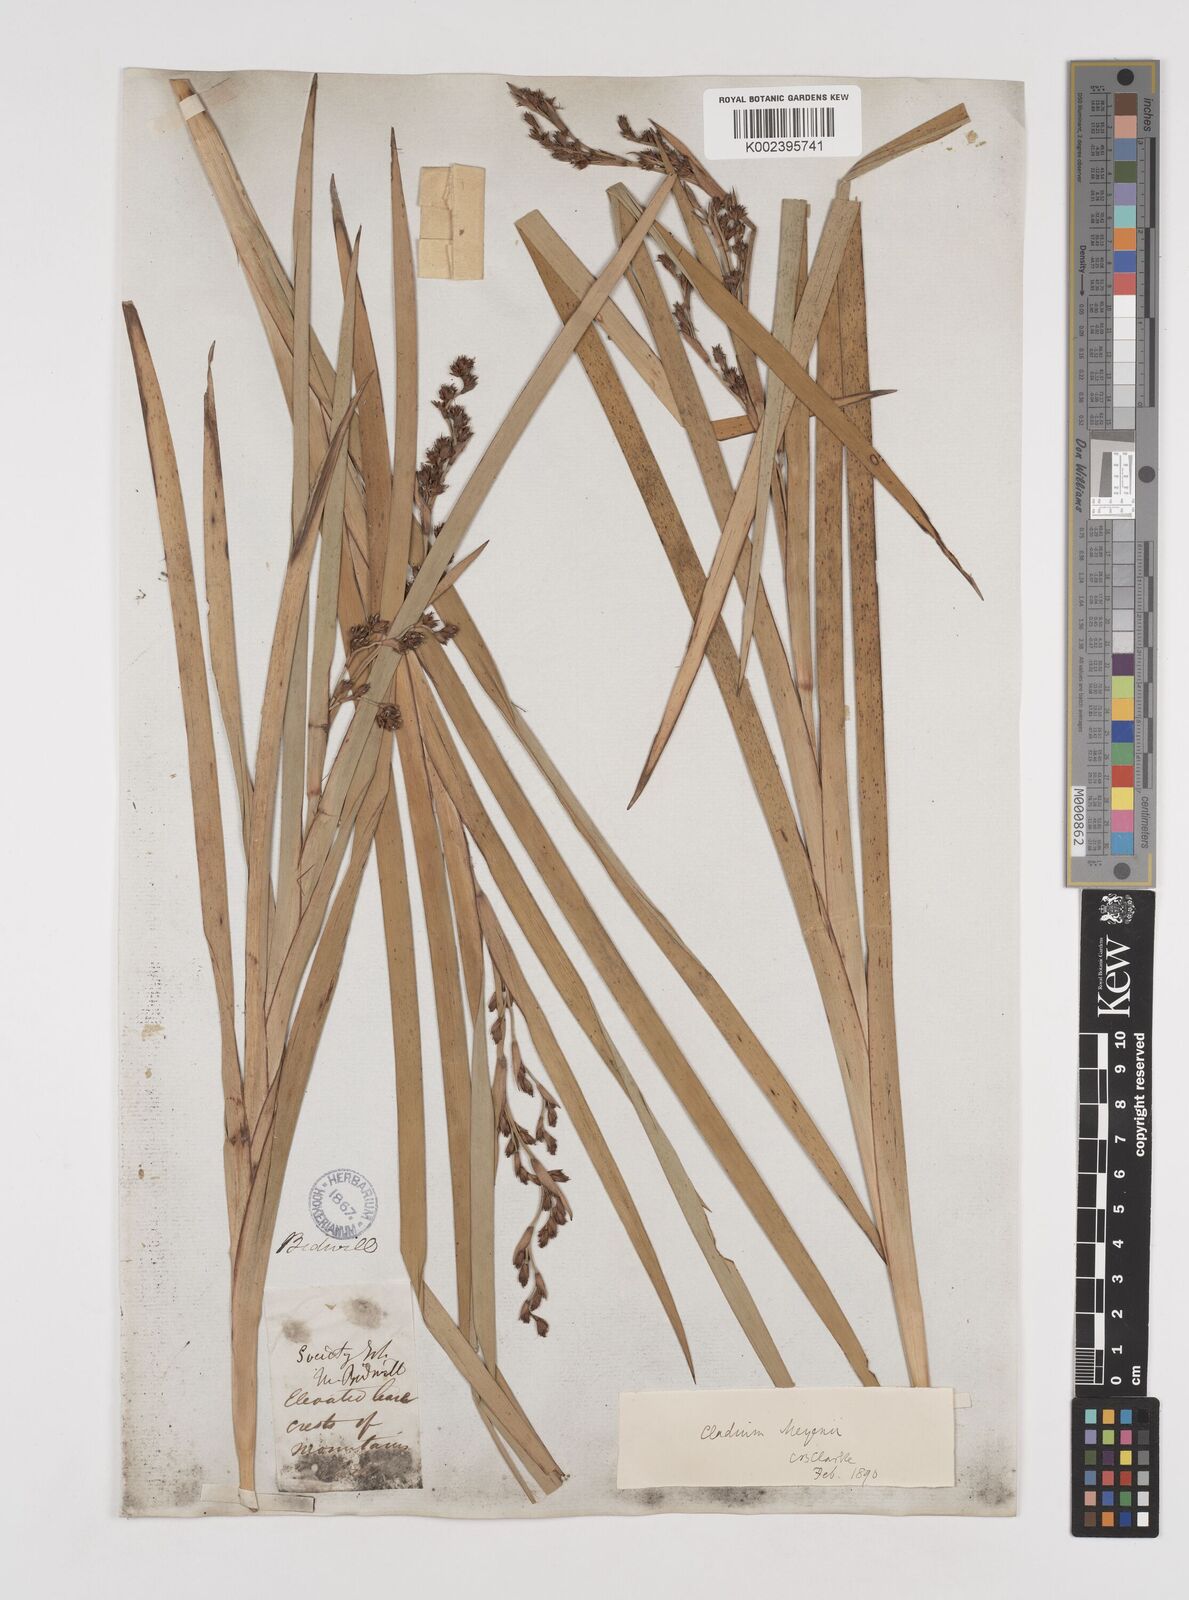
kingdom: Plantae
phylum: Tracheophyta
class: Liliopsida
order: Poales
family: Cyperaceae
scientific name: Cyperaceae
